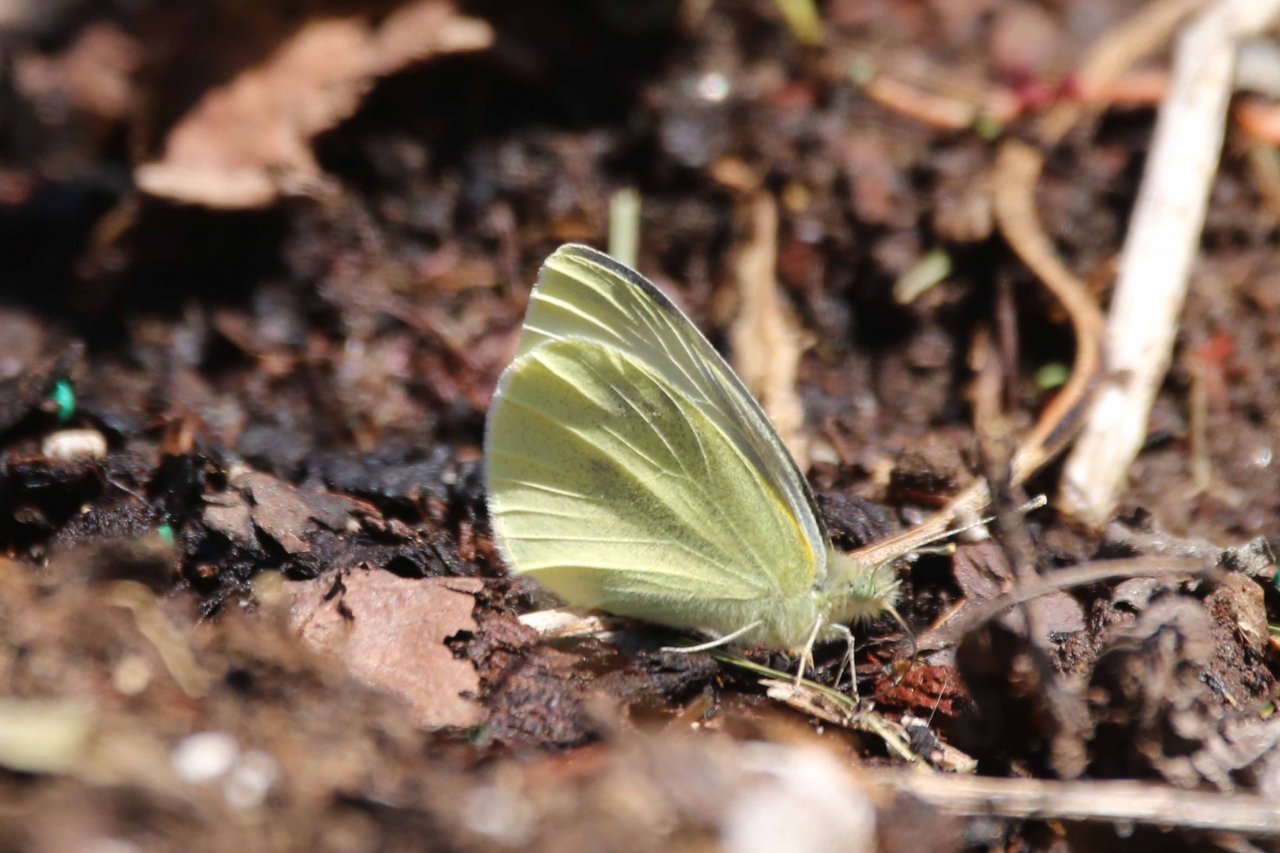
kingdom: Animalia
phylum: Arthropoda
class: Insecta
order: Lepidoptera
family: Pieridae
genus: Pieris
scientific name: Pieris rapae
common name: Cabbage White
